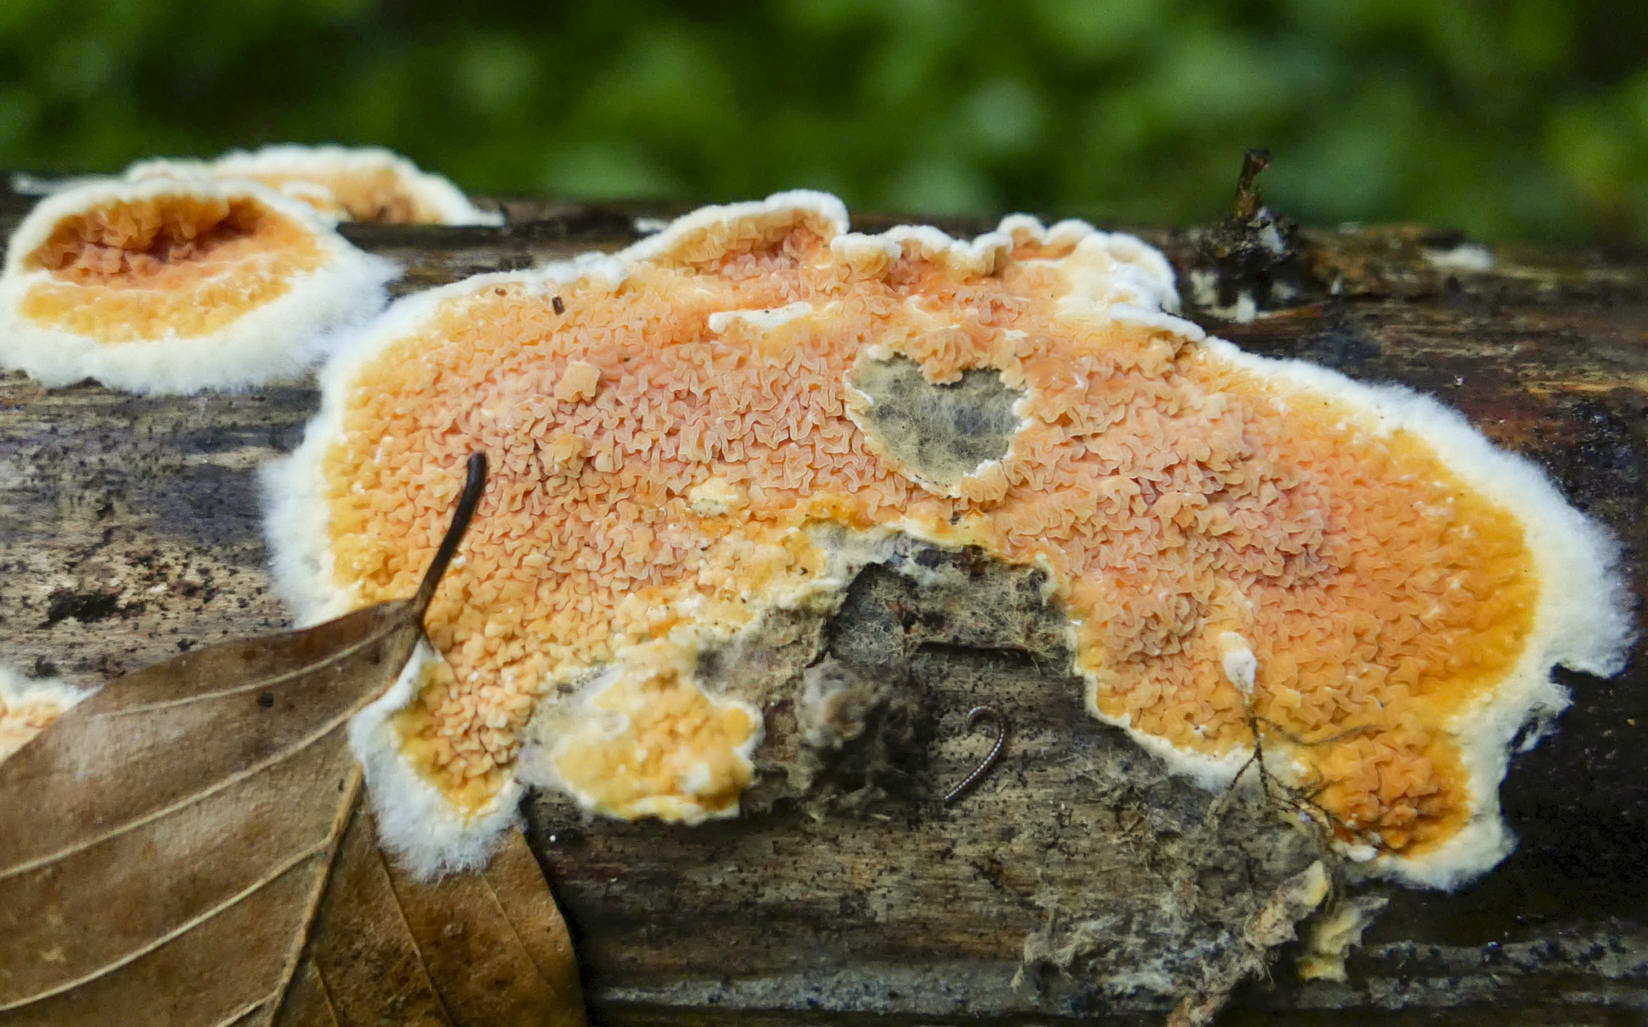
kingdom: Fungi
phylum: Basidiomycota
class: Agaricomycetes
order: Boletales
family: Hygrophoropsidaceae
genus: Leucogyrophana
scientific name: Leucogyrophana mollusca
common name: blød hussvamp
